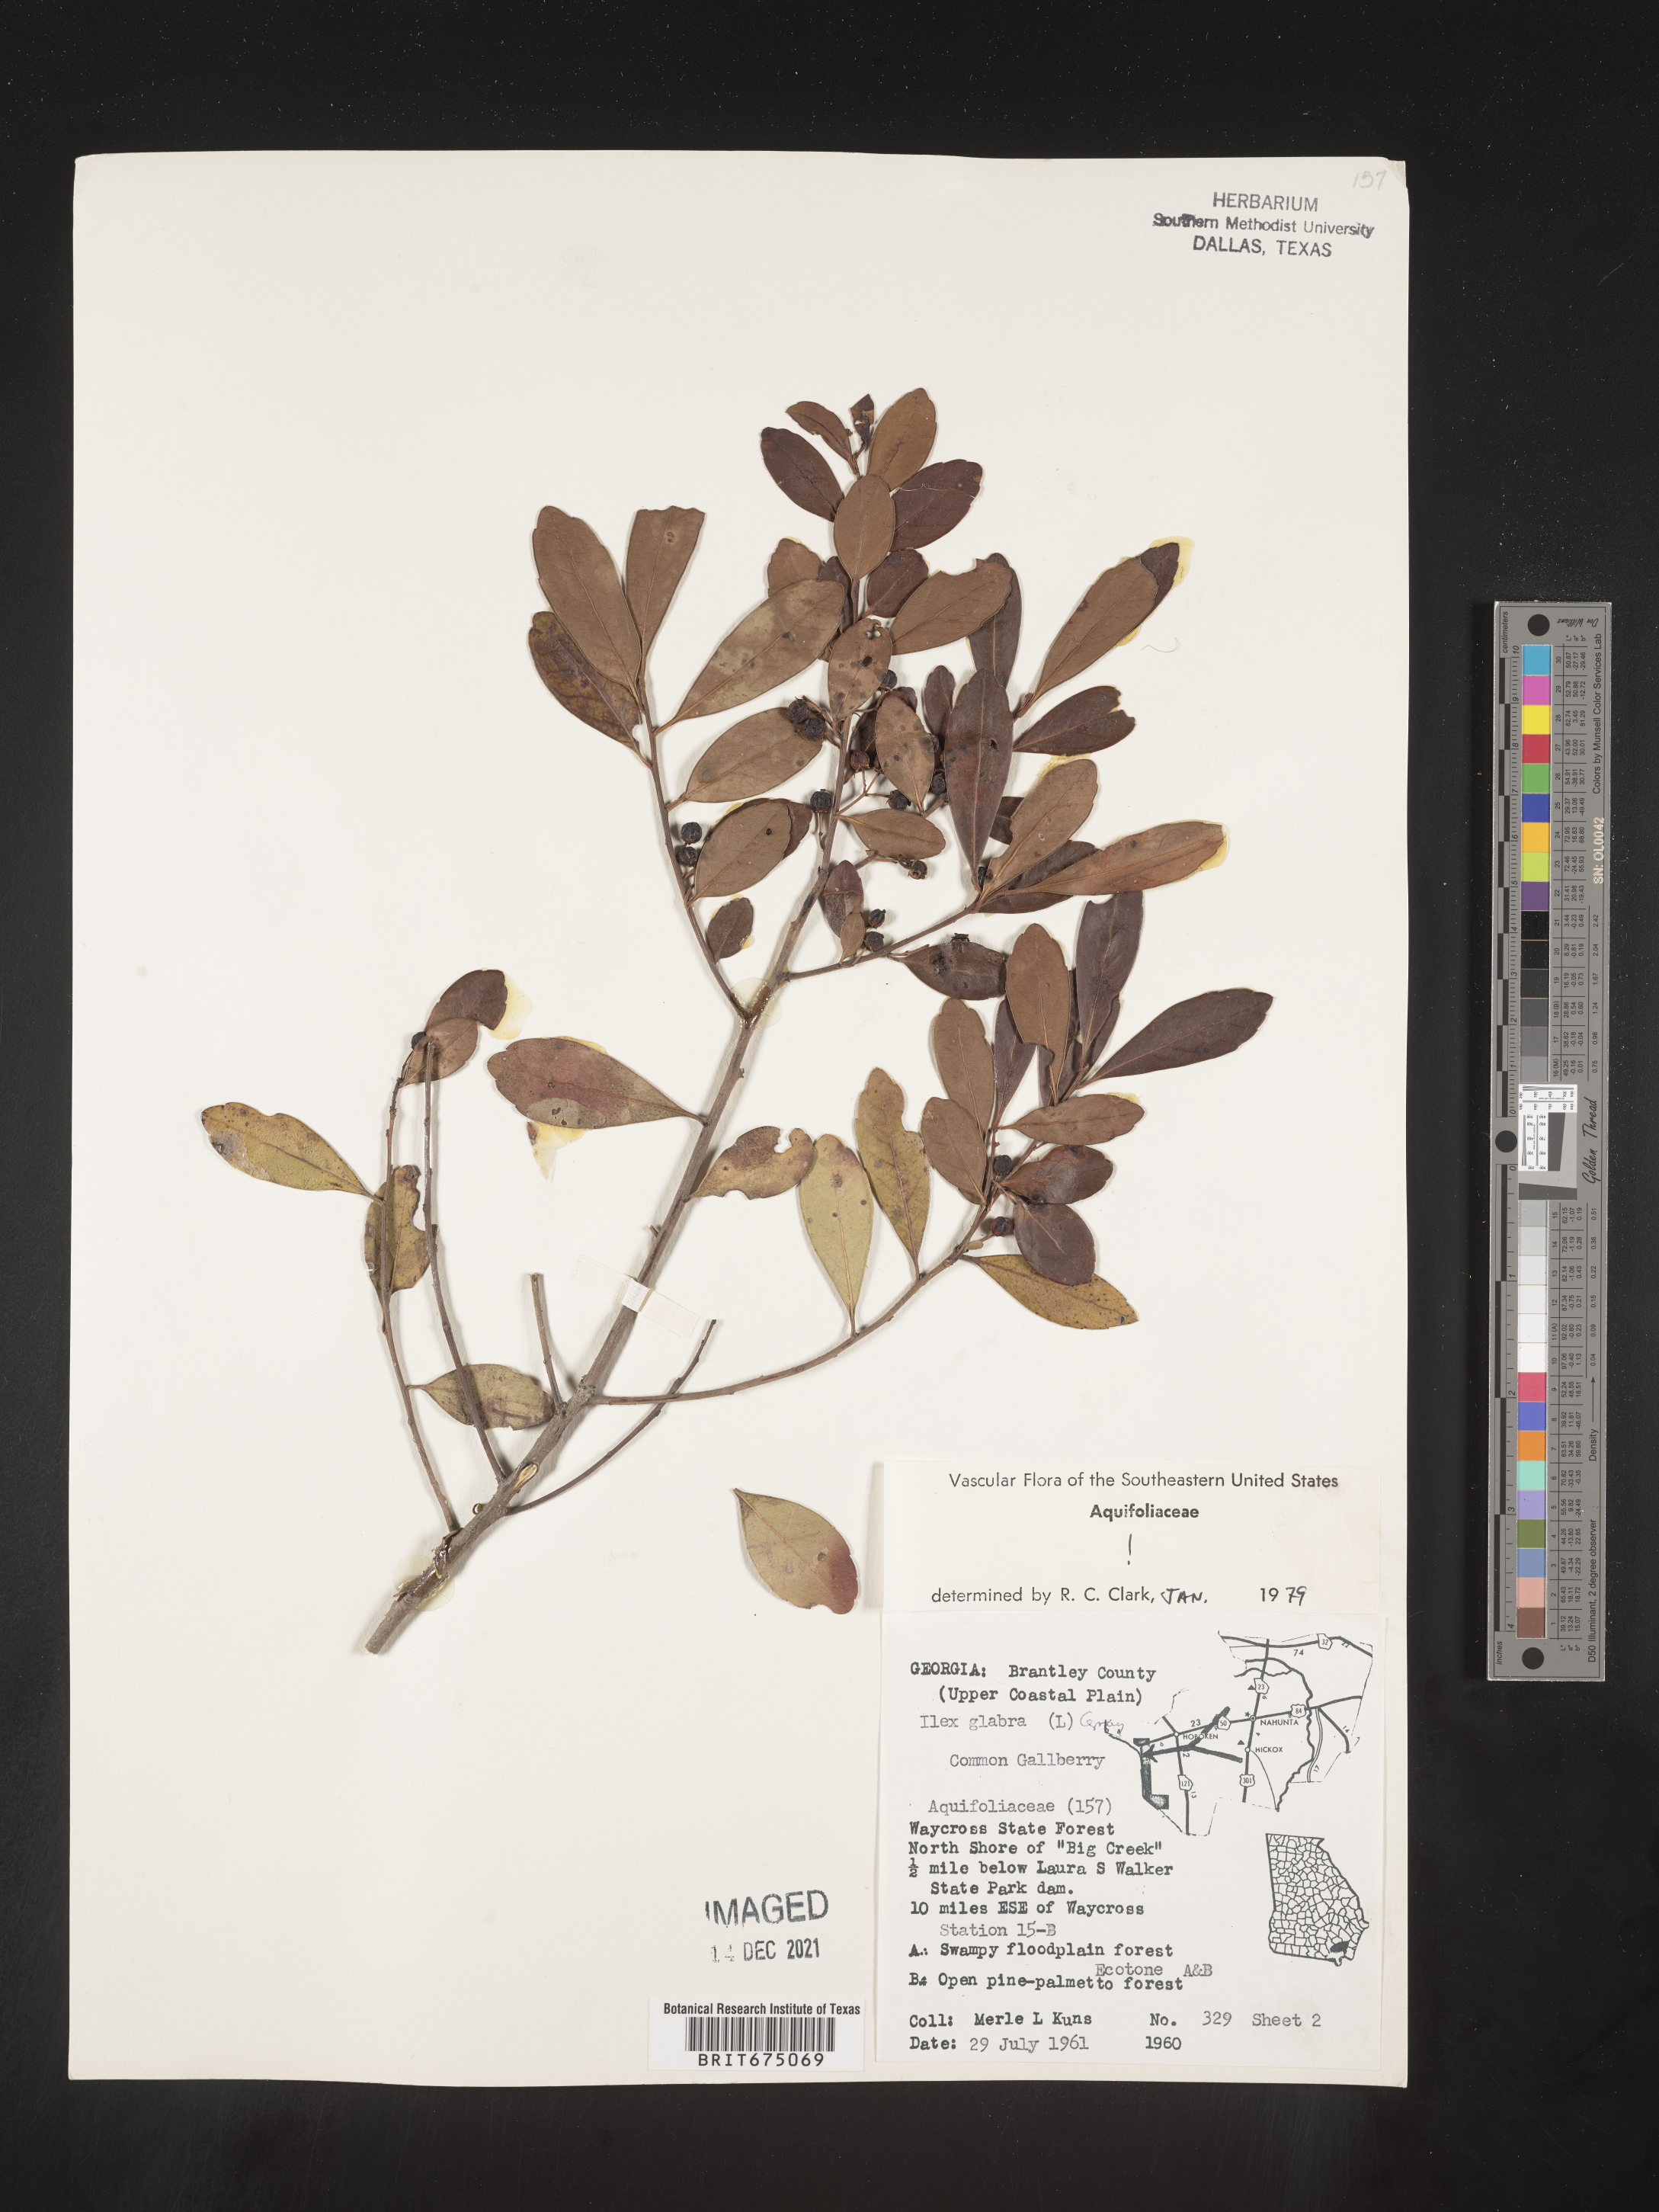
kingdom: Plantae
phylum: Tracheophyta
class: Magnoliopsida
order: Aquifoliales
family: Aquifoliaceae
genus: Ilex
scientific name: Ilex glabra
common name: Bitter gallberry
